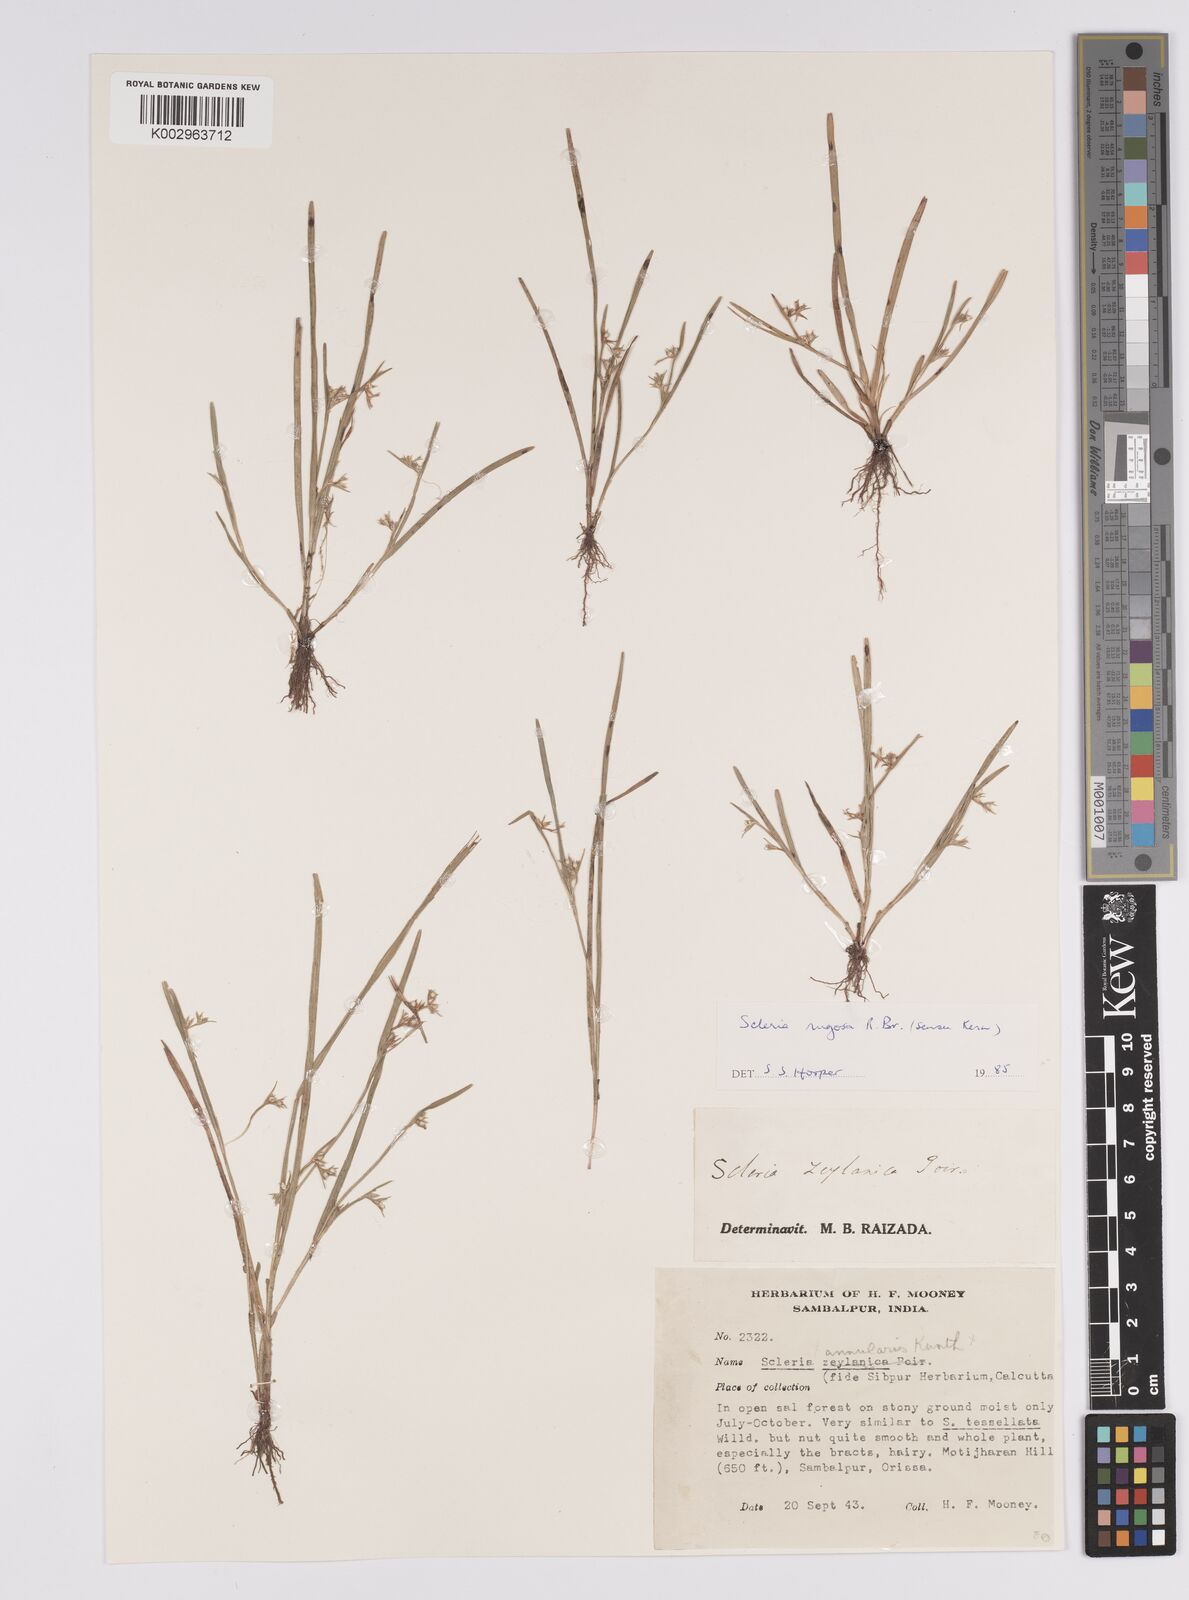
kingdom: Plantae
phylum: Tracheophyta
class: Liliopsida
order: Poales
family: Cyperaceae
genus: Scleria
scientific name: Scleria rugosa
